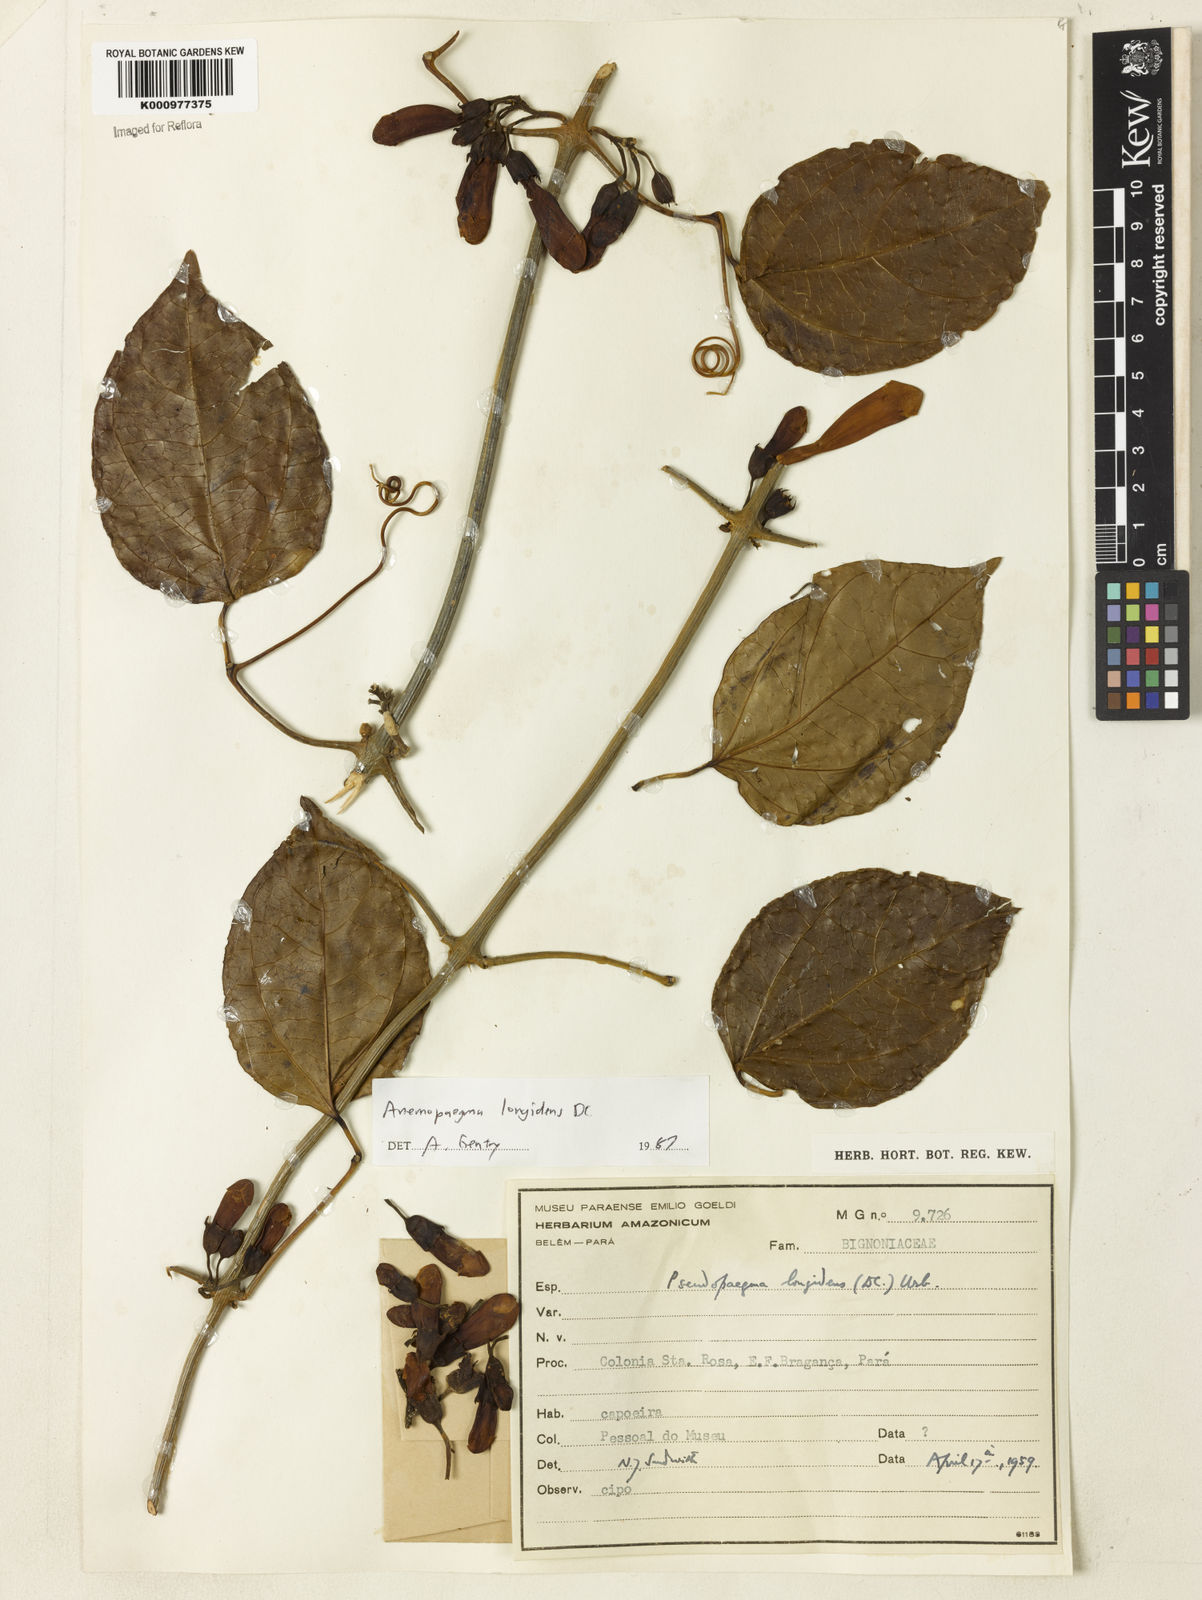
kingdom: Plantae
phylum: Tracheophyta
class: Magnoliopsida
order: Lamiales
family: Bignoniaceae
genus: Anemopaegma
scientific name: Anemopaegma longidens
